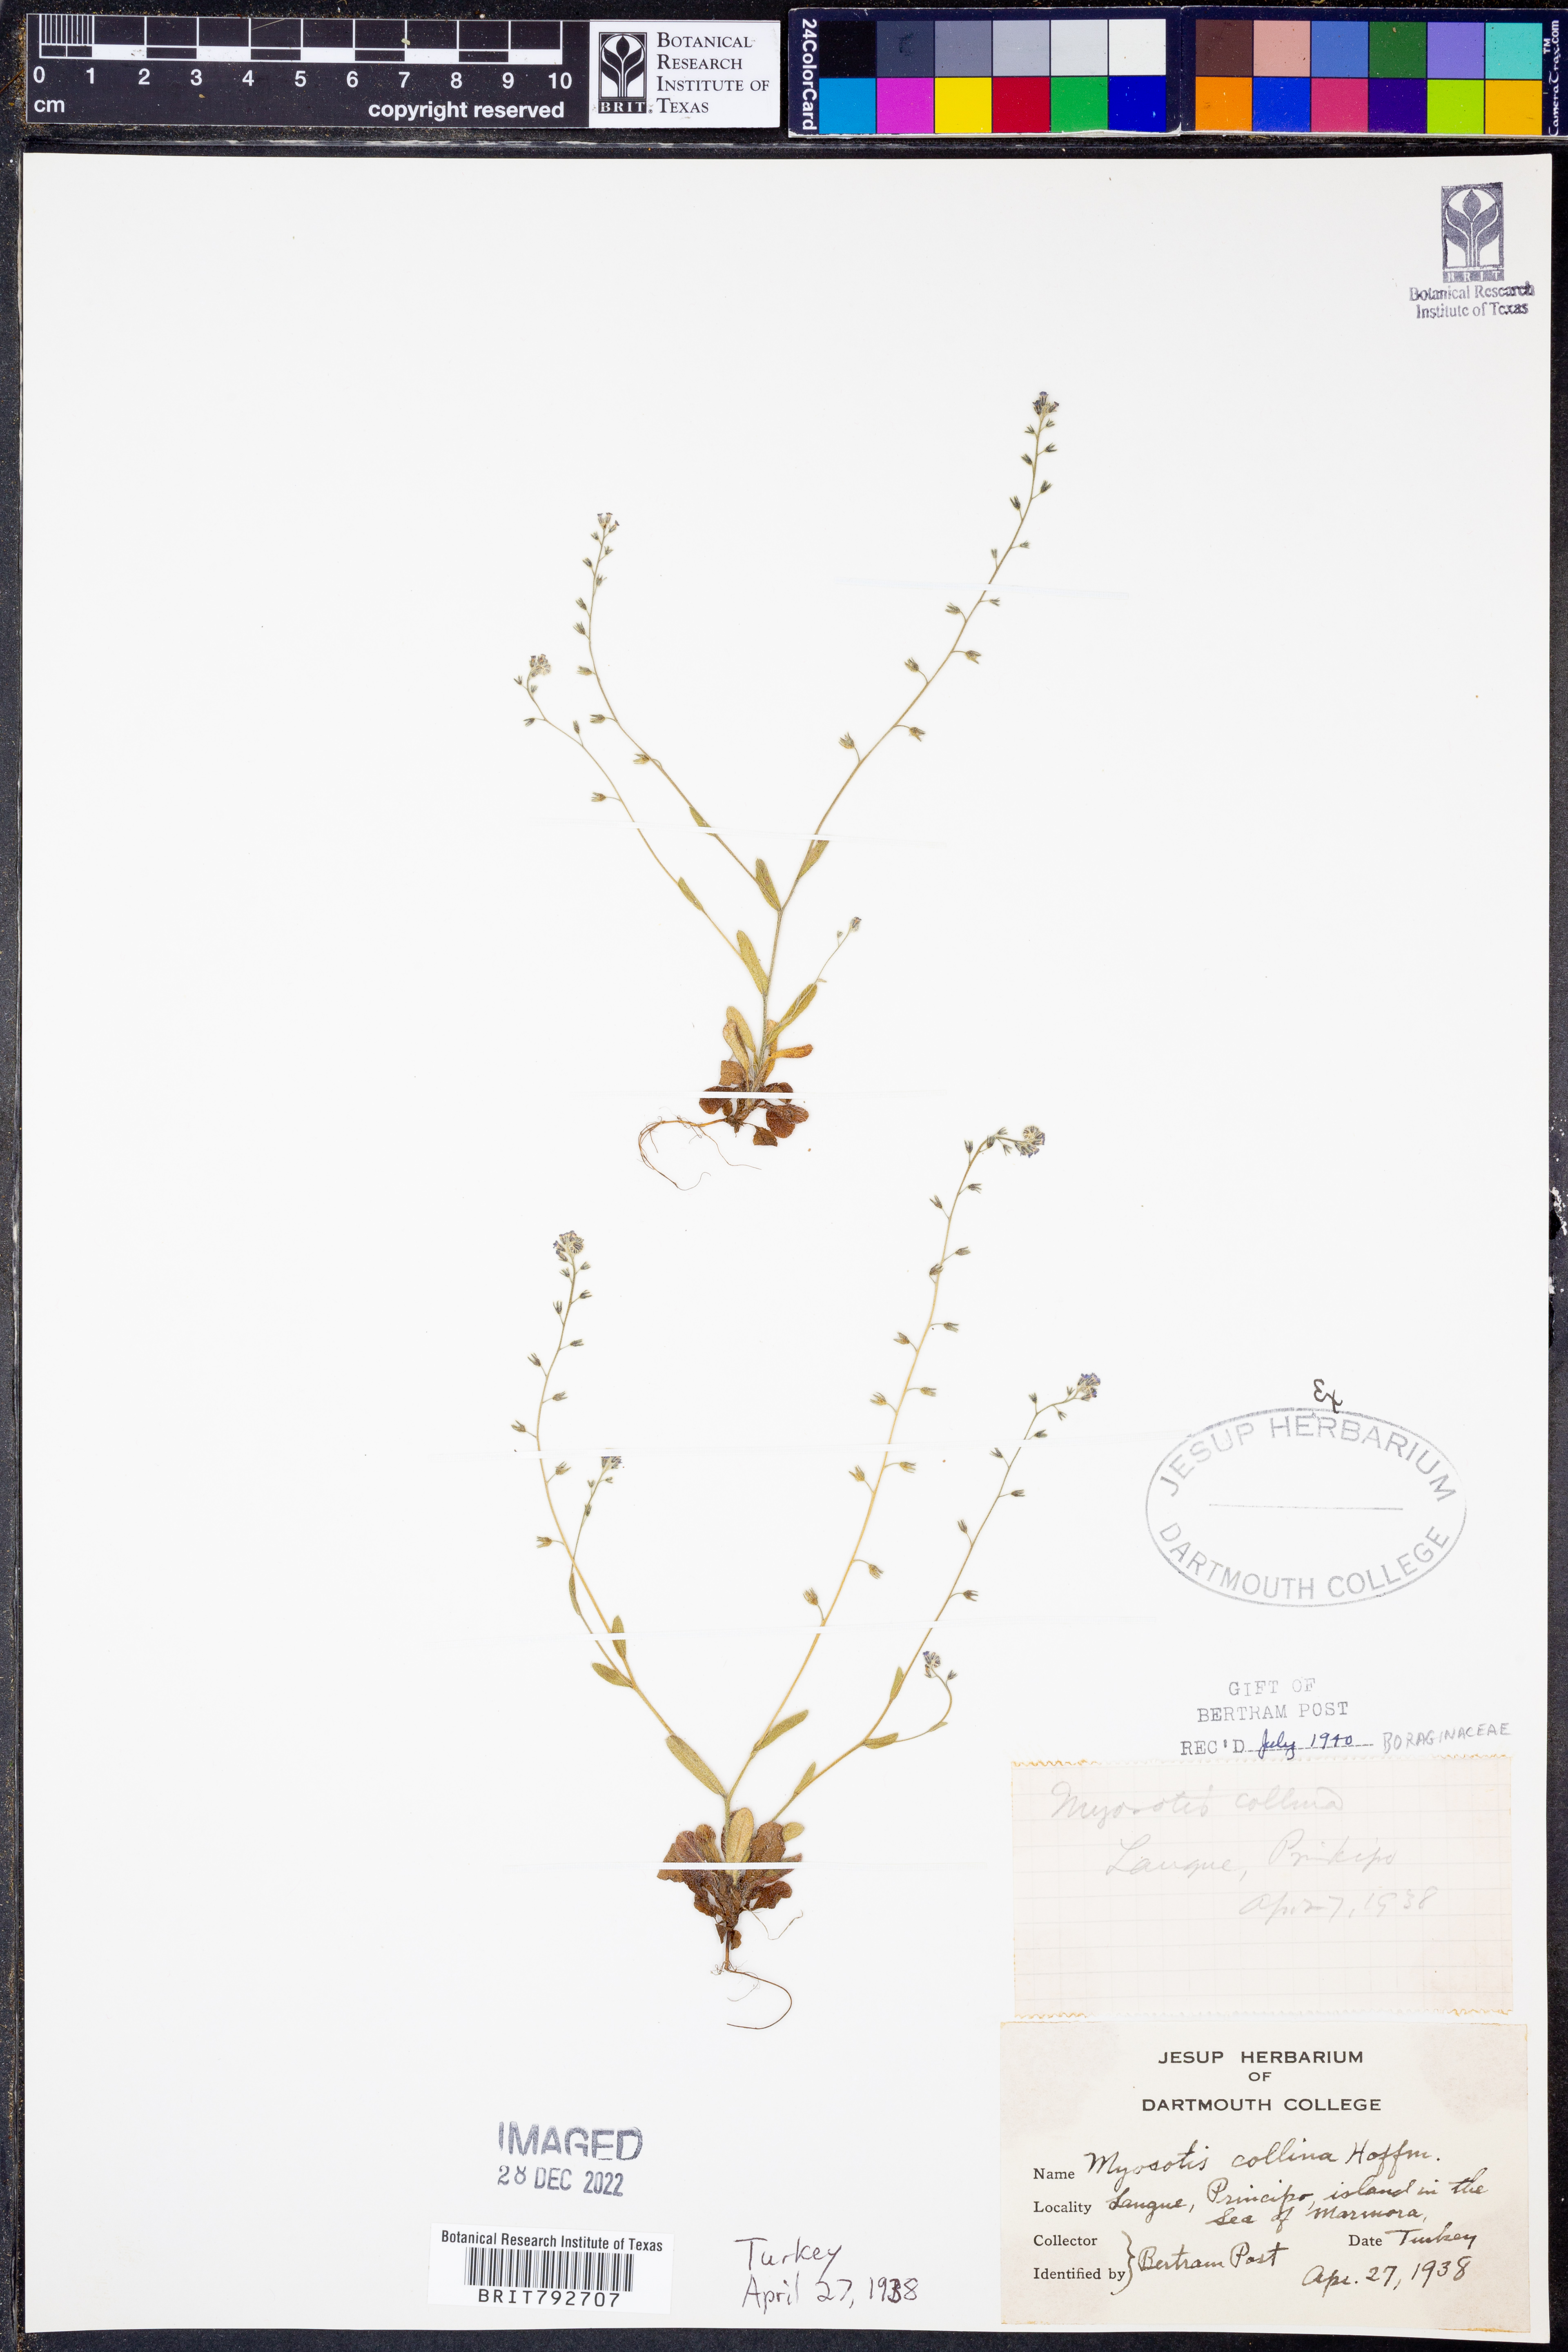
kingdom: Plantae
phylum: Tracheophyta
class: Magnoliopsida
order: Boraginales
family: Boraginaceae
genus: Myosotis
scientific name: Myosotis
